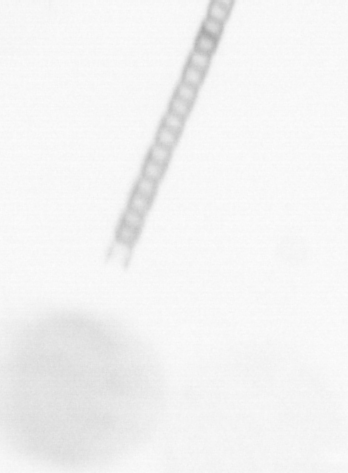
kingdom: Chromista
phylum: Ochrophyta
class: Bacillariophyceae
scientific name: Bacillariophyceae
